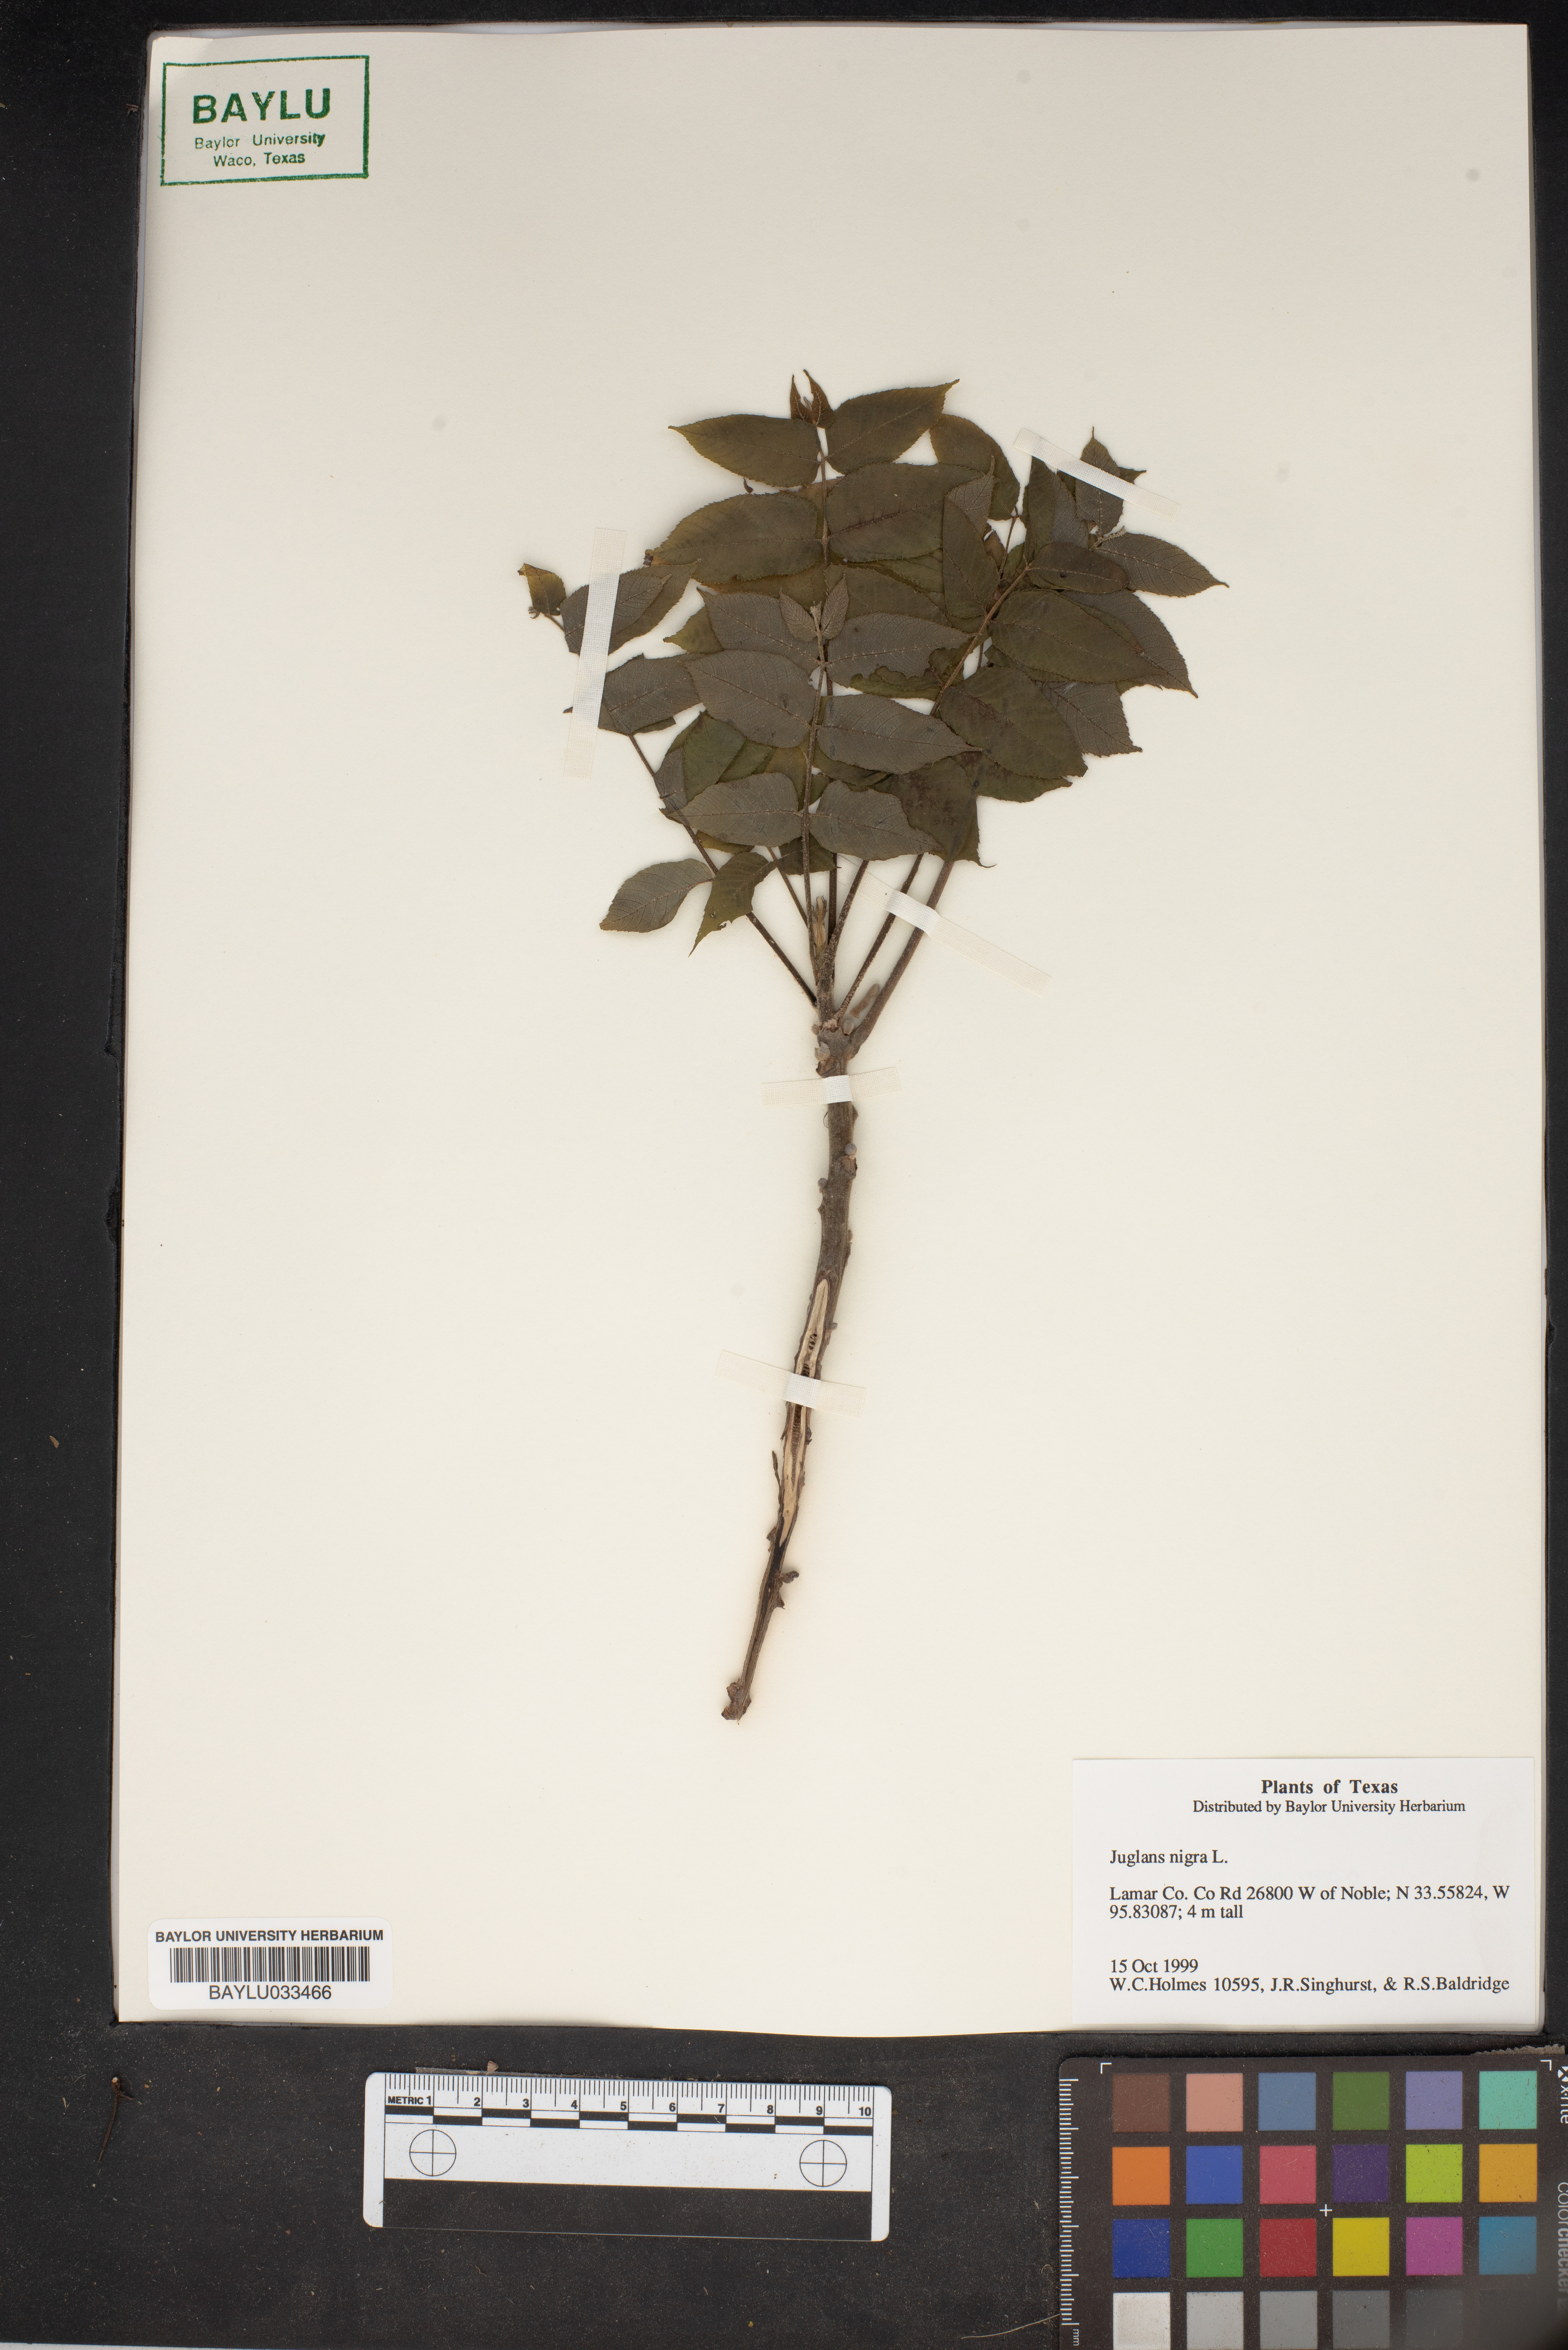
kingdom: Plantae
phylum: Tracheophyta
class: Magnoliopsida
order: Fagales
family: Juglandaceae
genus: Juglans
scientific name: Juglans nigra
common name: Black walnut
